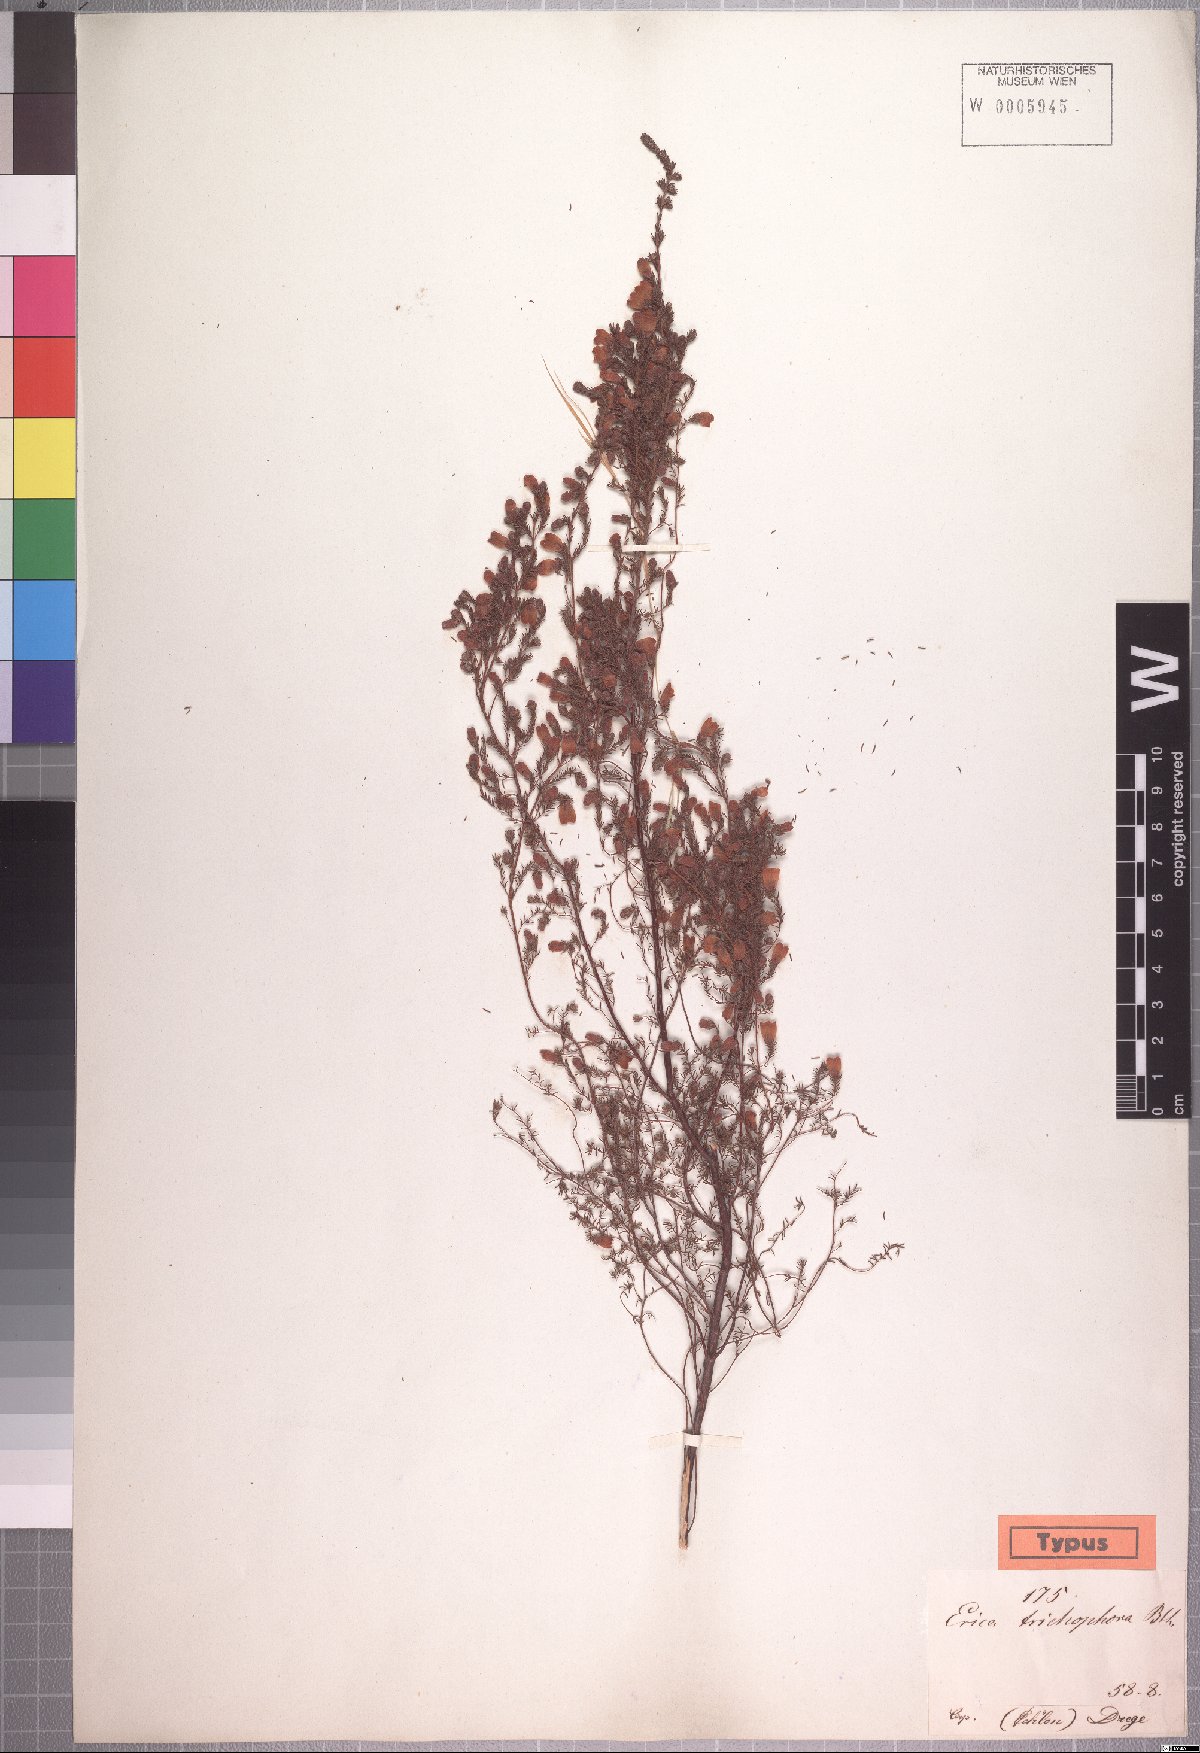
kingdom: Plantae
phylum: Tracheophyta
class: Magnoliopsida
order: Ericales
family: Ericaceae
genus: Erica
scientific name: Erica trichophora
